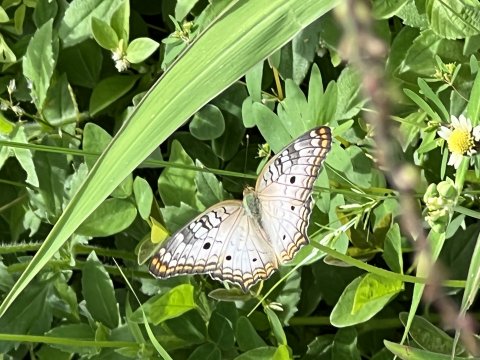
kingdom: Animalia
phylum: Arthropoda
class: Insecta
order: Lepidoptera
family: Nymphalidae
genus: Anartia
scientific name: Anartia jatrophae
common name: White Peacock
